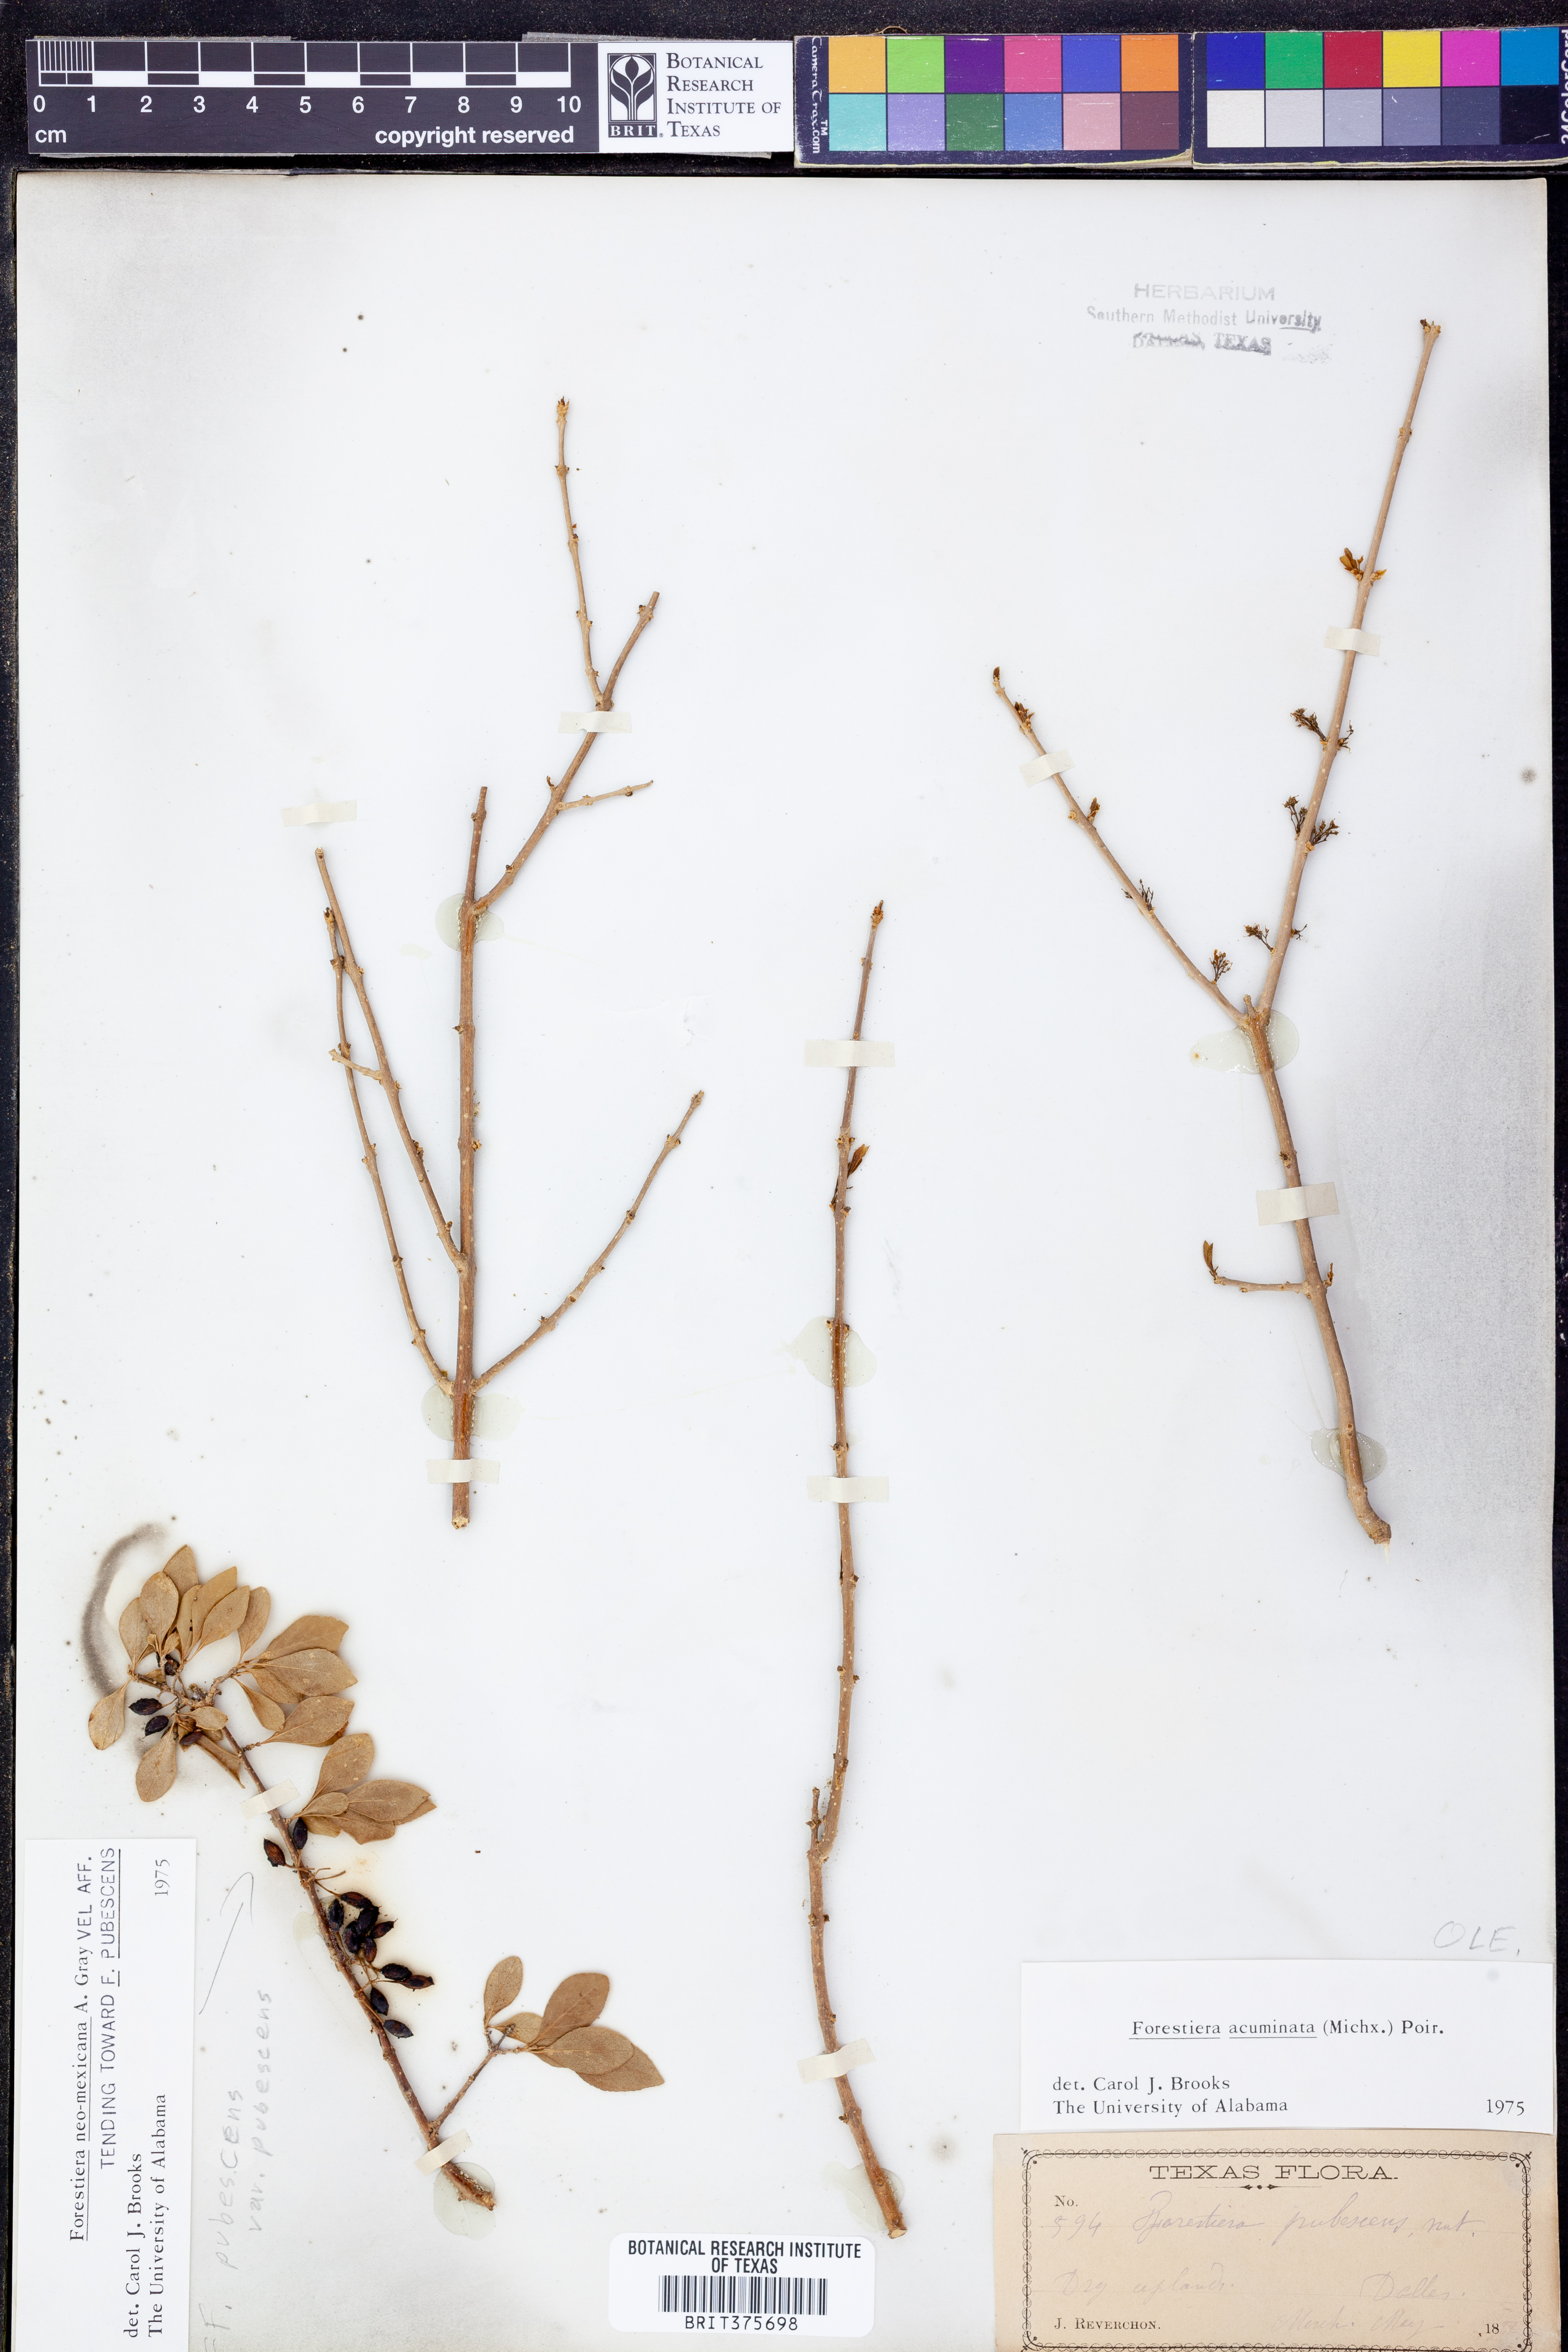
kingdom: Plantae
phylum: Tracheophyta
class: Magnoliopsida
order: Lamiales
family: Oleaceae
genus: Forestiera
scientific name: Forestiera acuminata
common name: Swamp-privet
